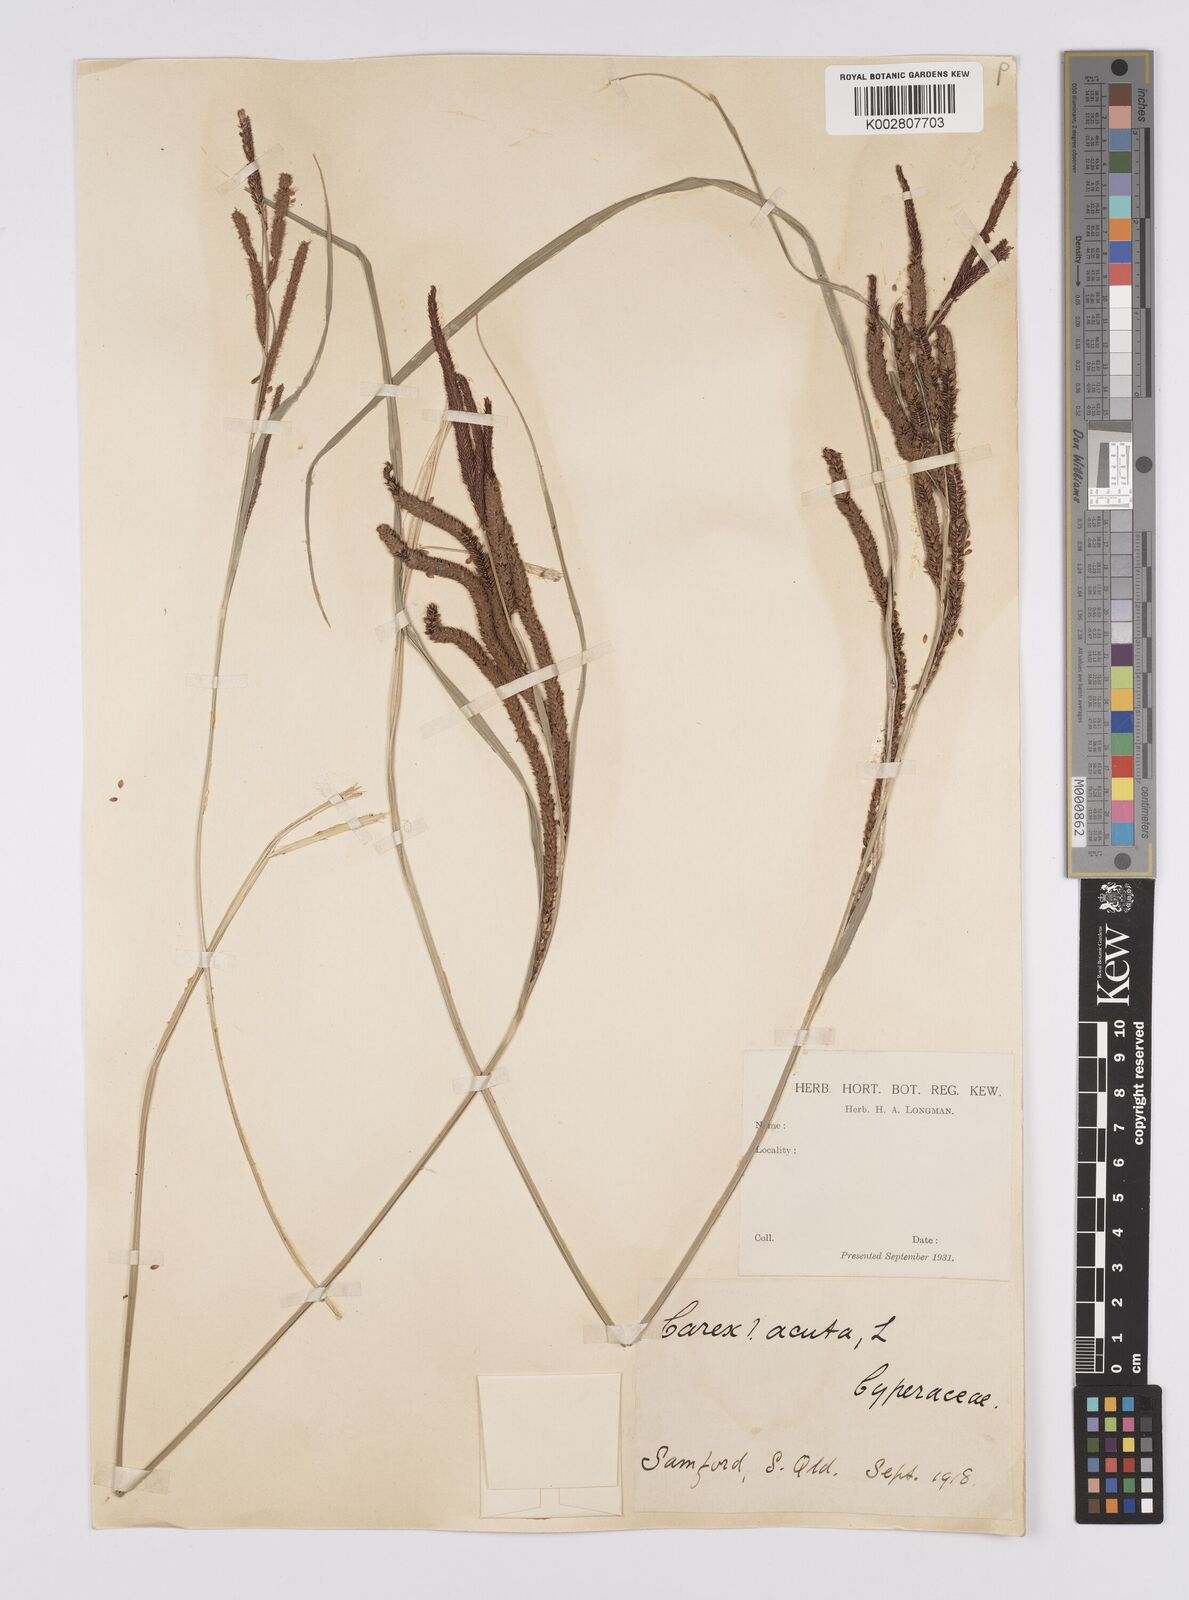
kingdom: Plantae
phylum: Tracheophyta
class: Liliopsida
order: Poales
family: Cyperaceae
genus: Carex
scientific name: Carex polyantha
